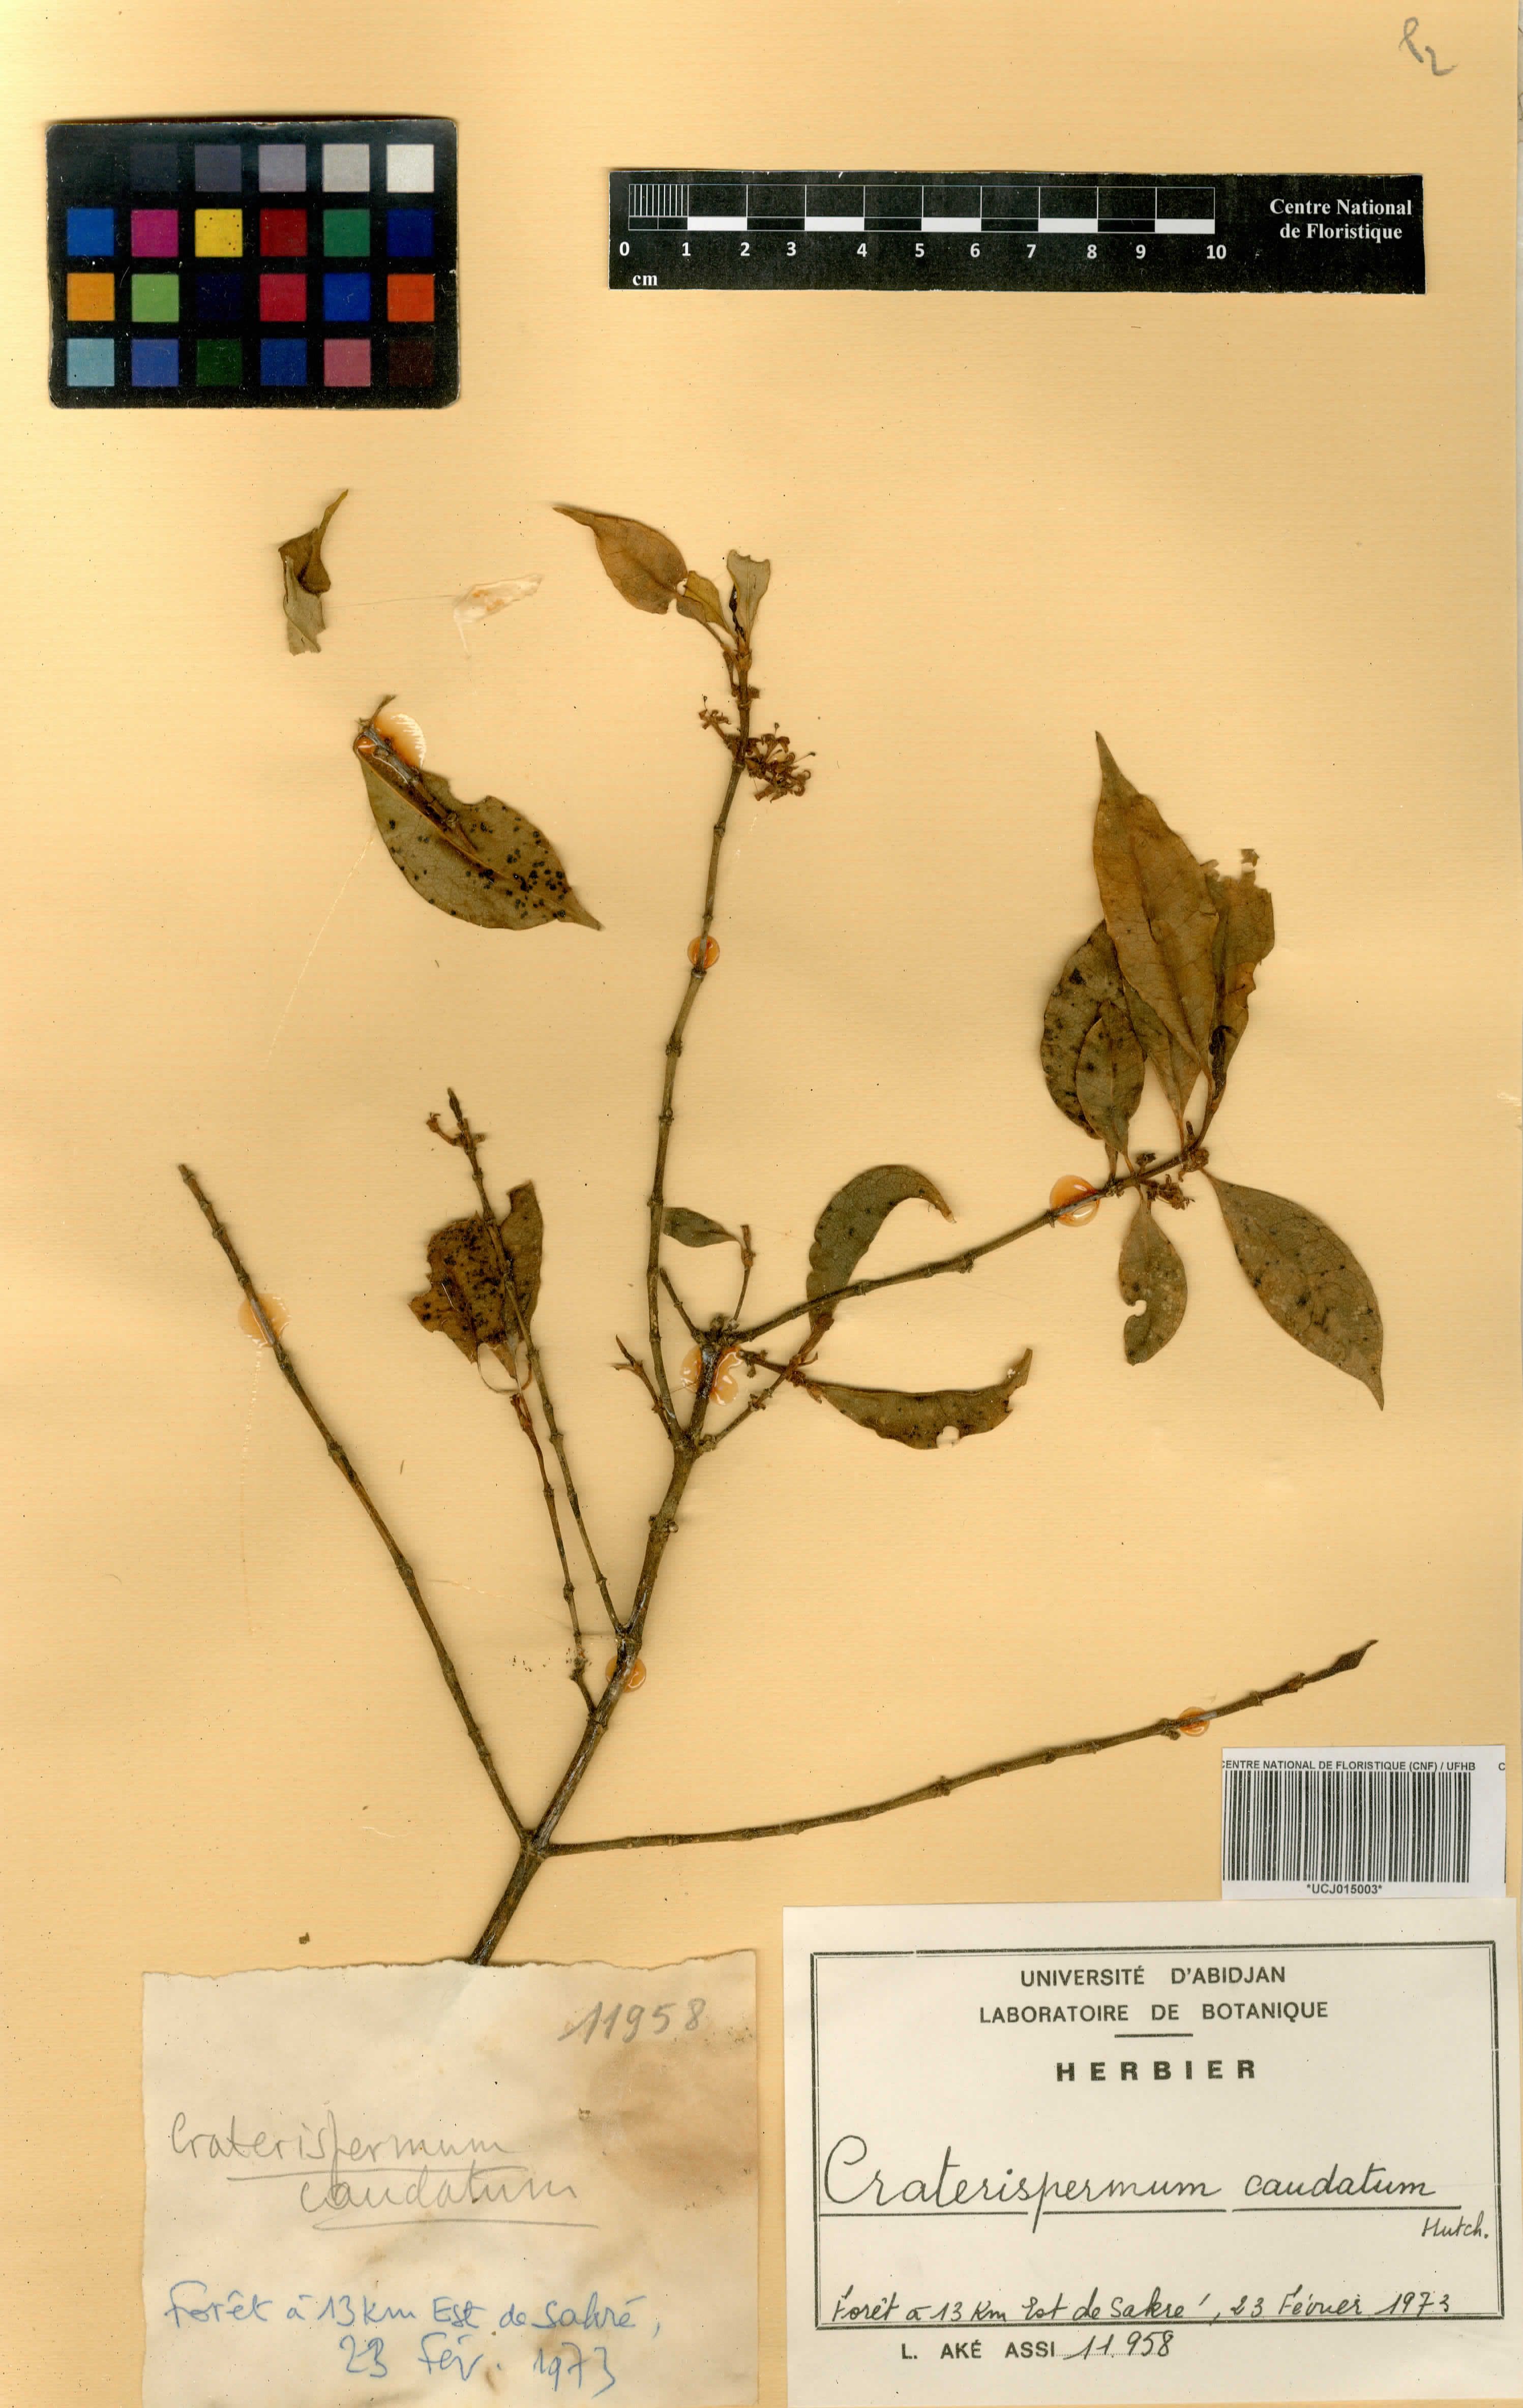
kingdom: Plantae
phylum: Tracheophyta
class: Magnoliopsida
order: Gentianales
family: Rubiaceae
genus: Craterispermum
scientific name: Craterispermum caudatum
